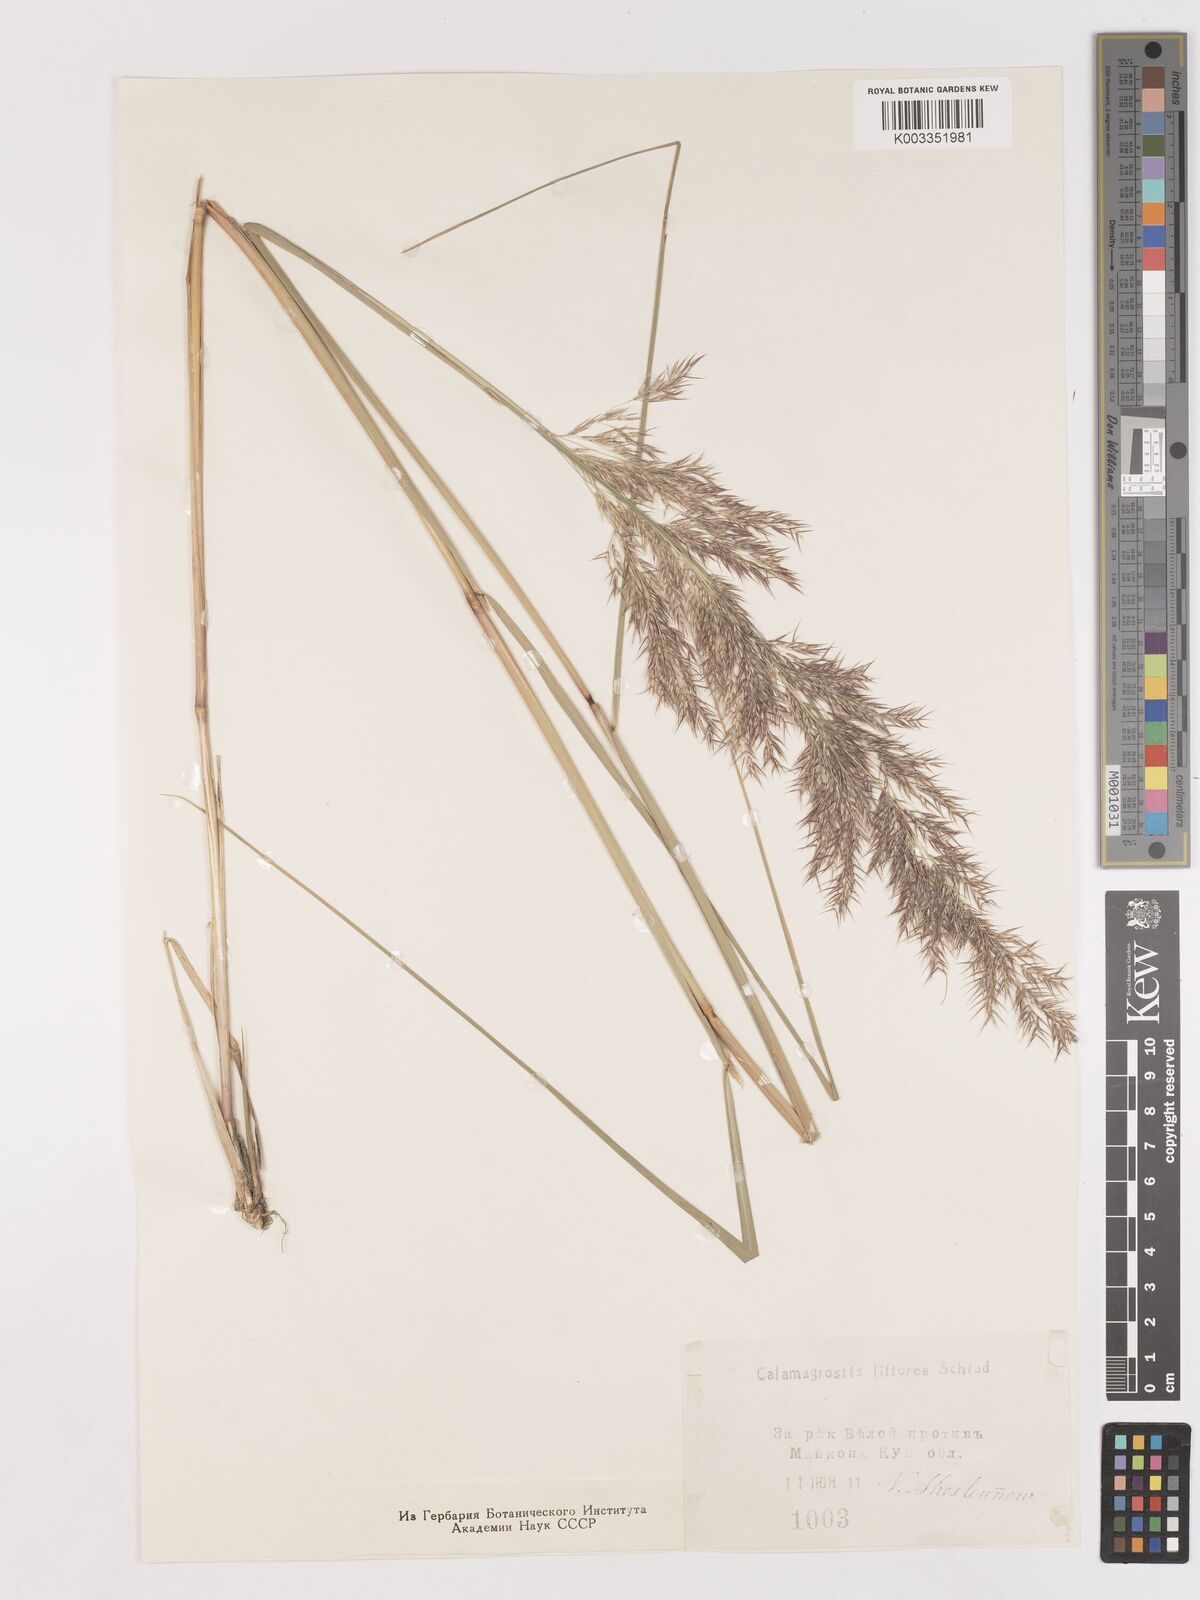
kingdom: Plantae
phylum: Tracheophyta
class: Liliopsida
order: Poales
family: Poaceae
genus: Calamagrostis
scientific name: Calamagrostis pseudophragmites
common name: Coastal small-reed
